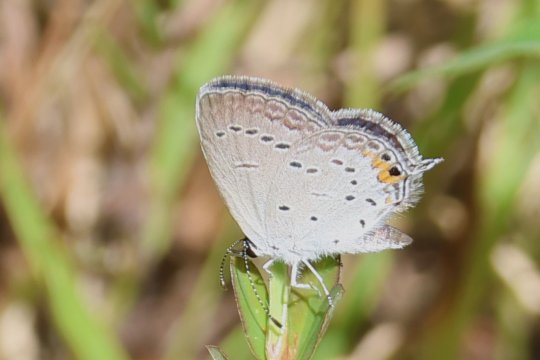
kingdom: Animalia
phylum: Arthropoda
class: Insecta
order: Lepidoptera
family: Lycaenidae
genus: Elkalyce
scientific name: Elkalyce comyntas
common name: Eastern Tailed-Blue
